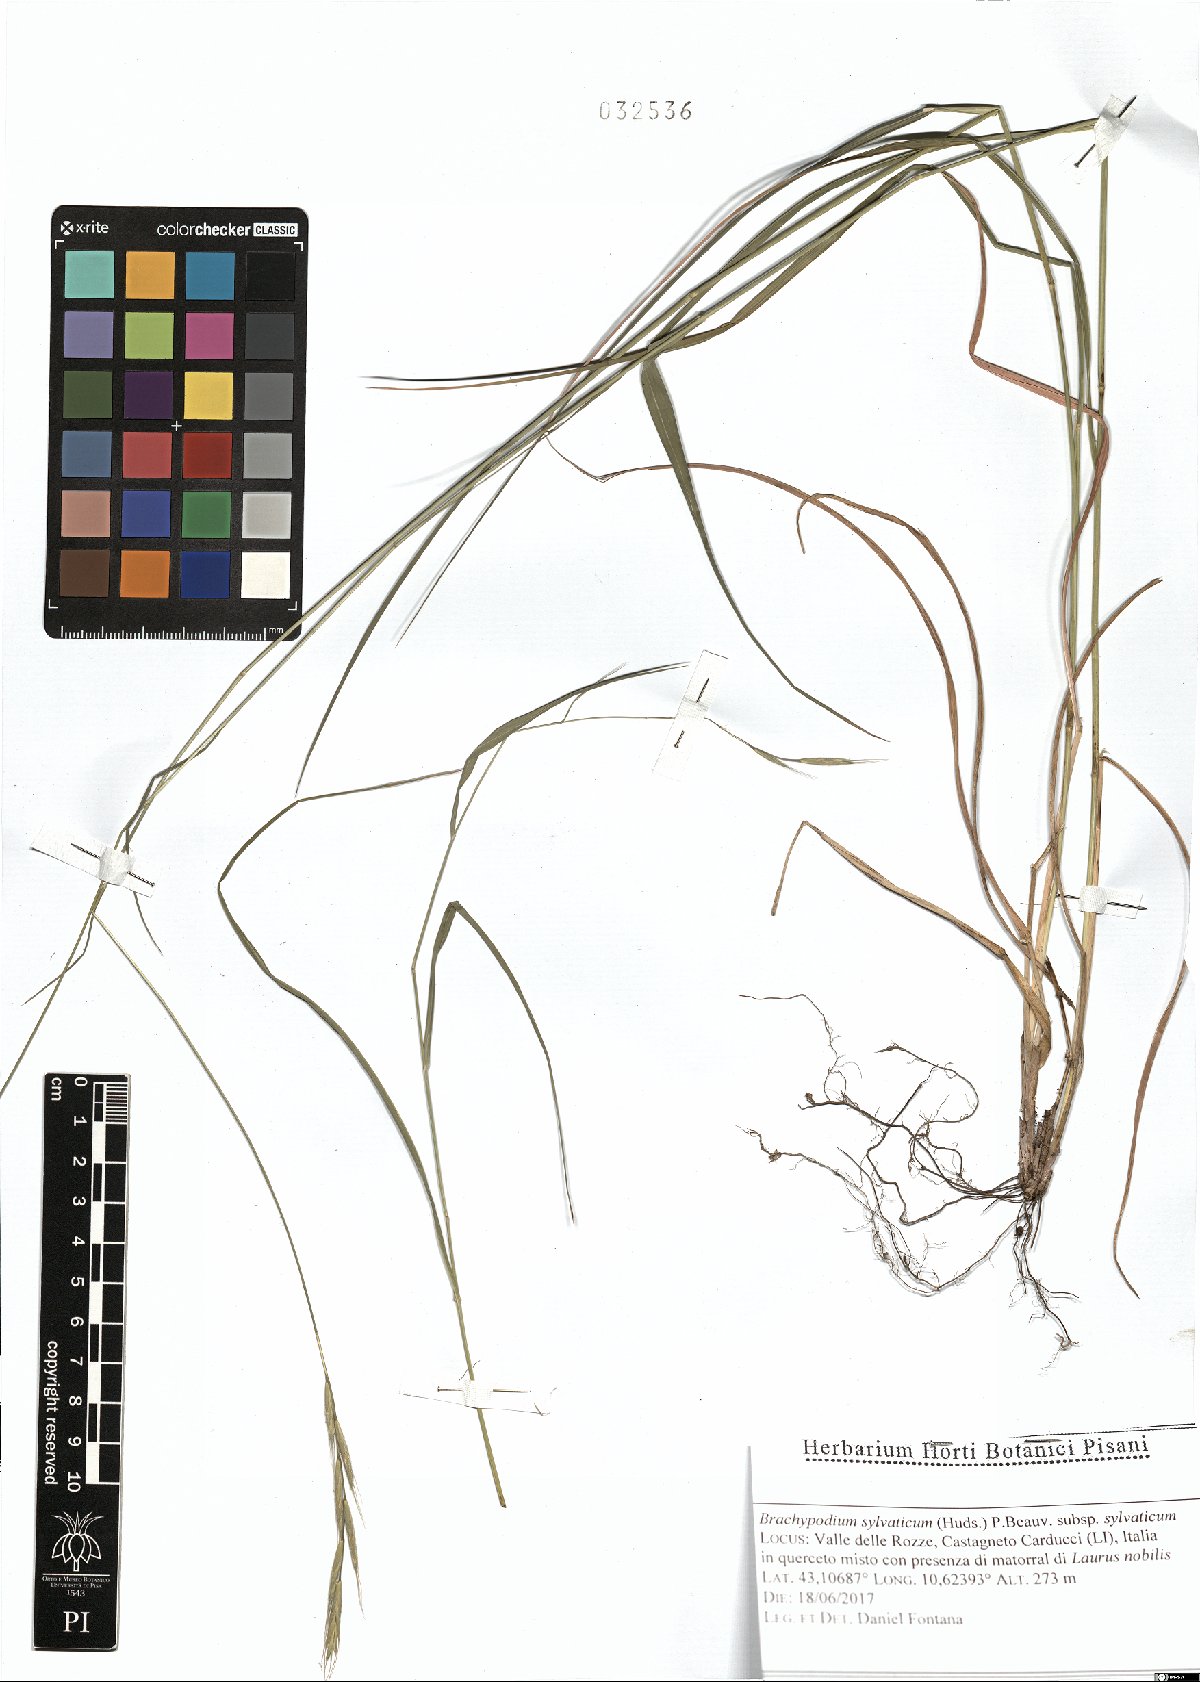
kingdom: Plantae
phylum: Tracheophyta
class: Liliopsida
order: Poales
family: Poaceae
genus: Brachypodium
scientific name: Brachypodium sylvaticum
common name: False-brome
